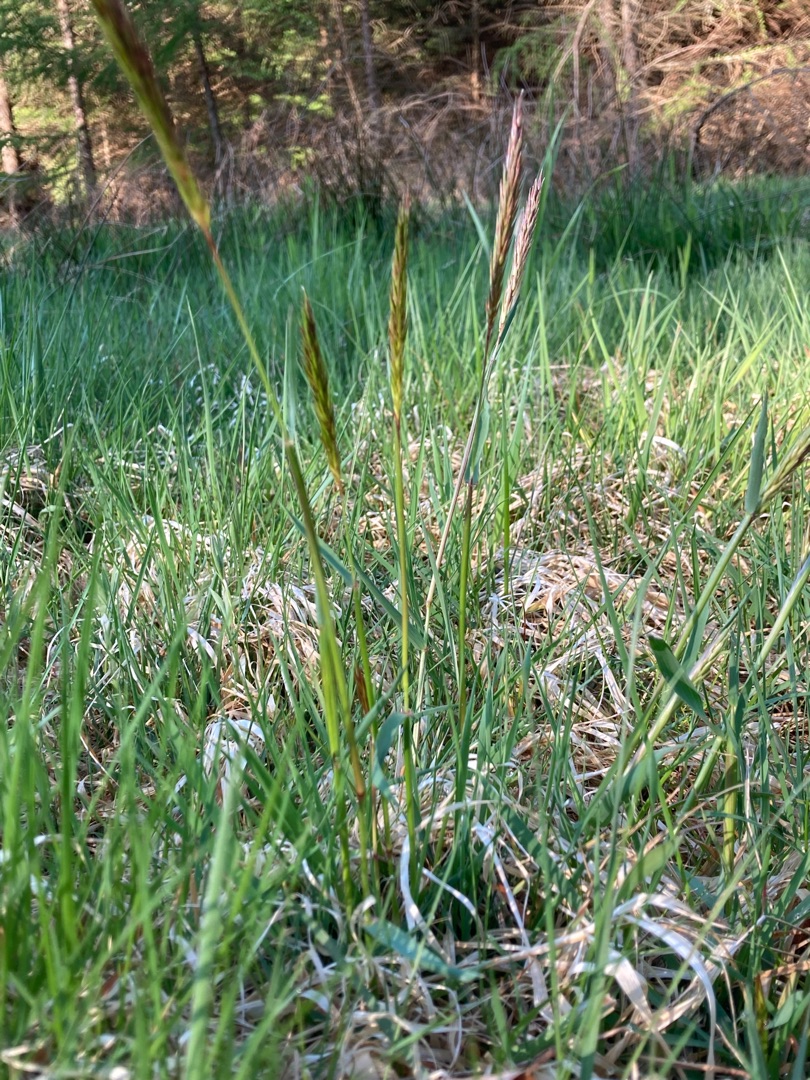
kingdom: Plantae
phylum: Tracheophyta
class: Liliopsida
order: Poales
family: Poaceae
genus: Anthoxanthum
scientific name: Anthoxanthum odoratum
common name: Vellugtende gulaks
